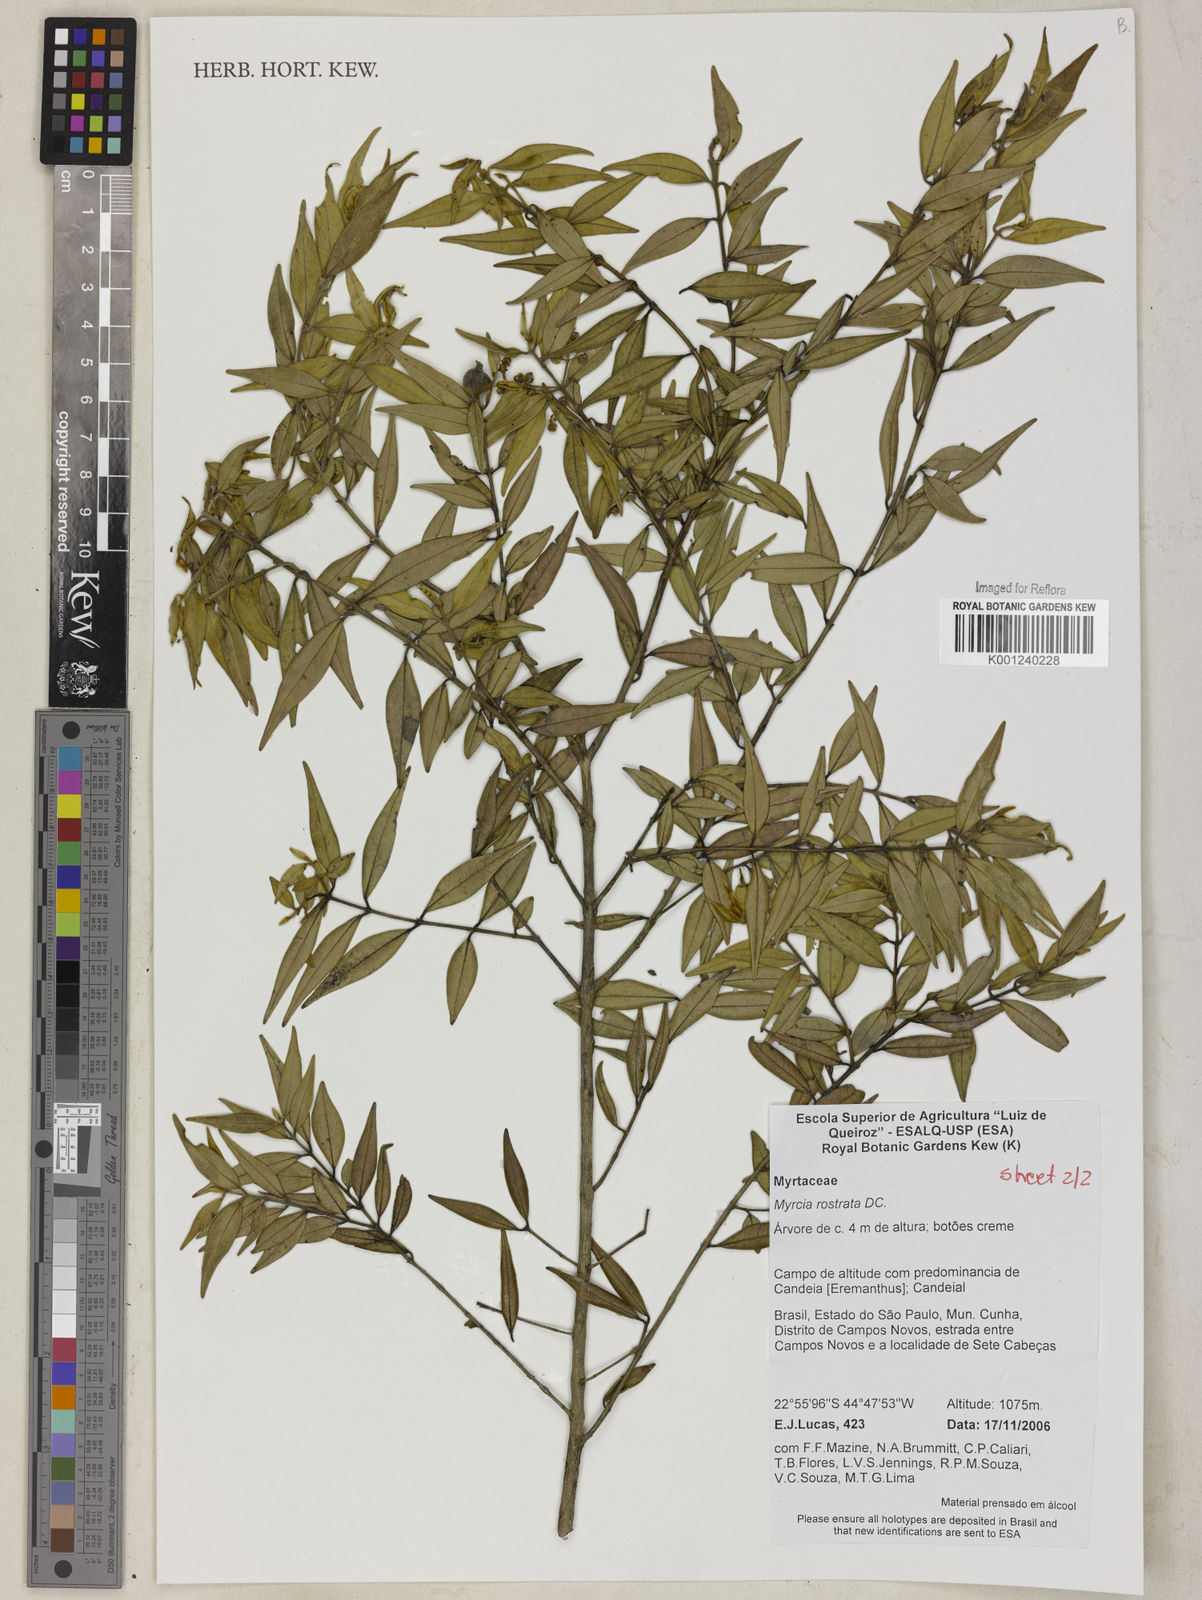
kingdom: Plantae
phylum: Tracheophyta
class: Magnoliopsida
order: Myrtales
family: Myrtaceae
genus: Myrcia
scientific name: Myrcia splendens
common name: Surinam cherry
